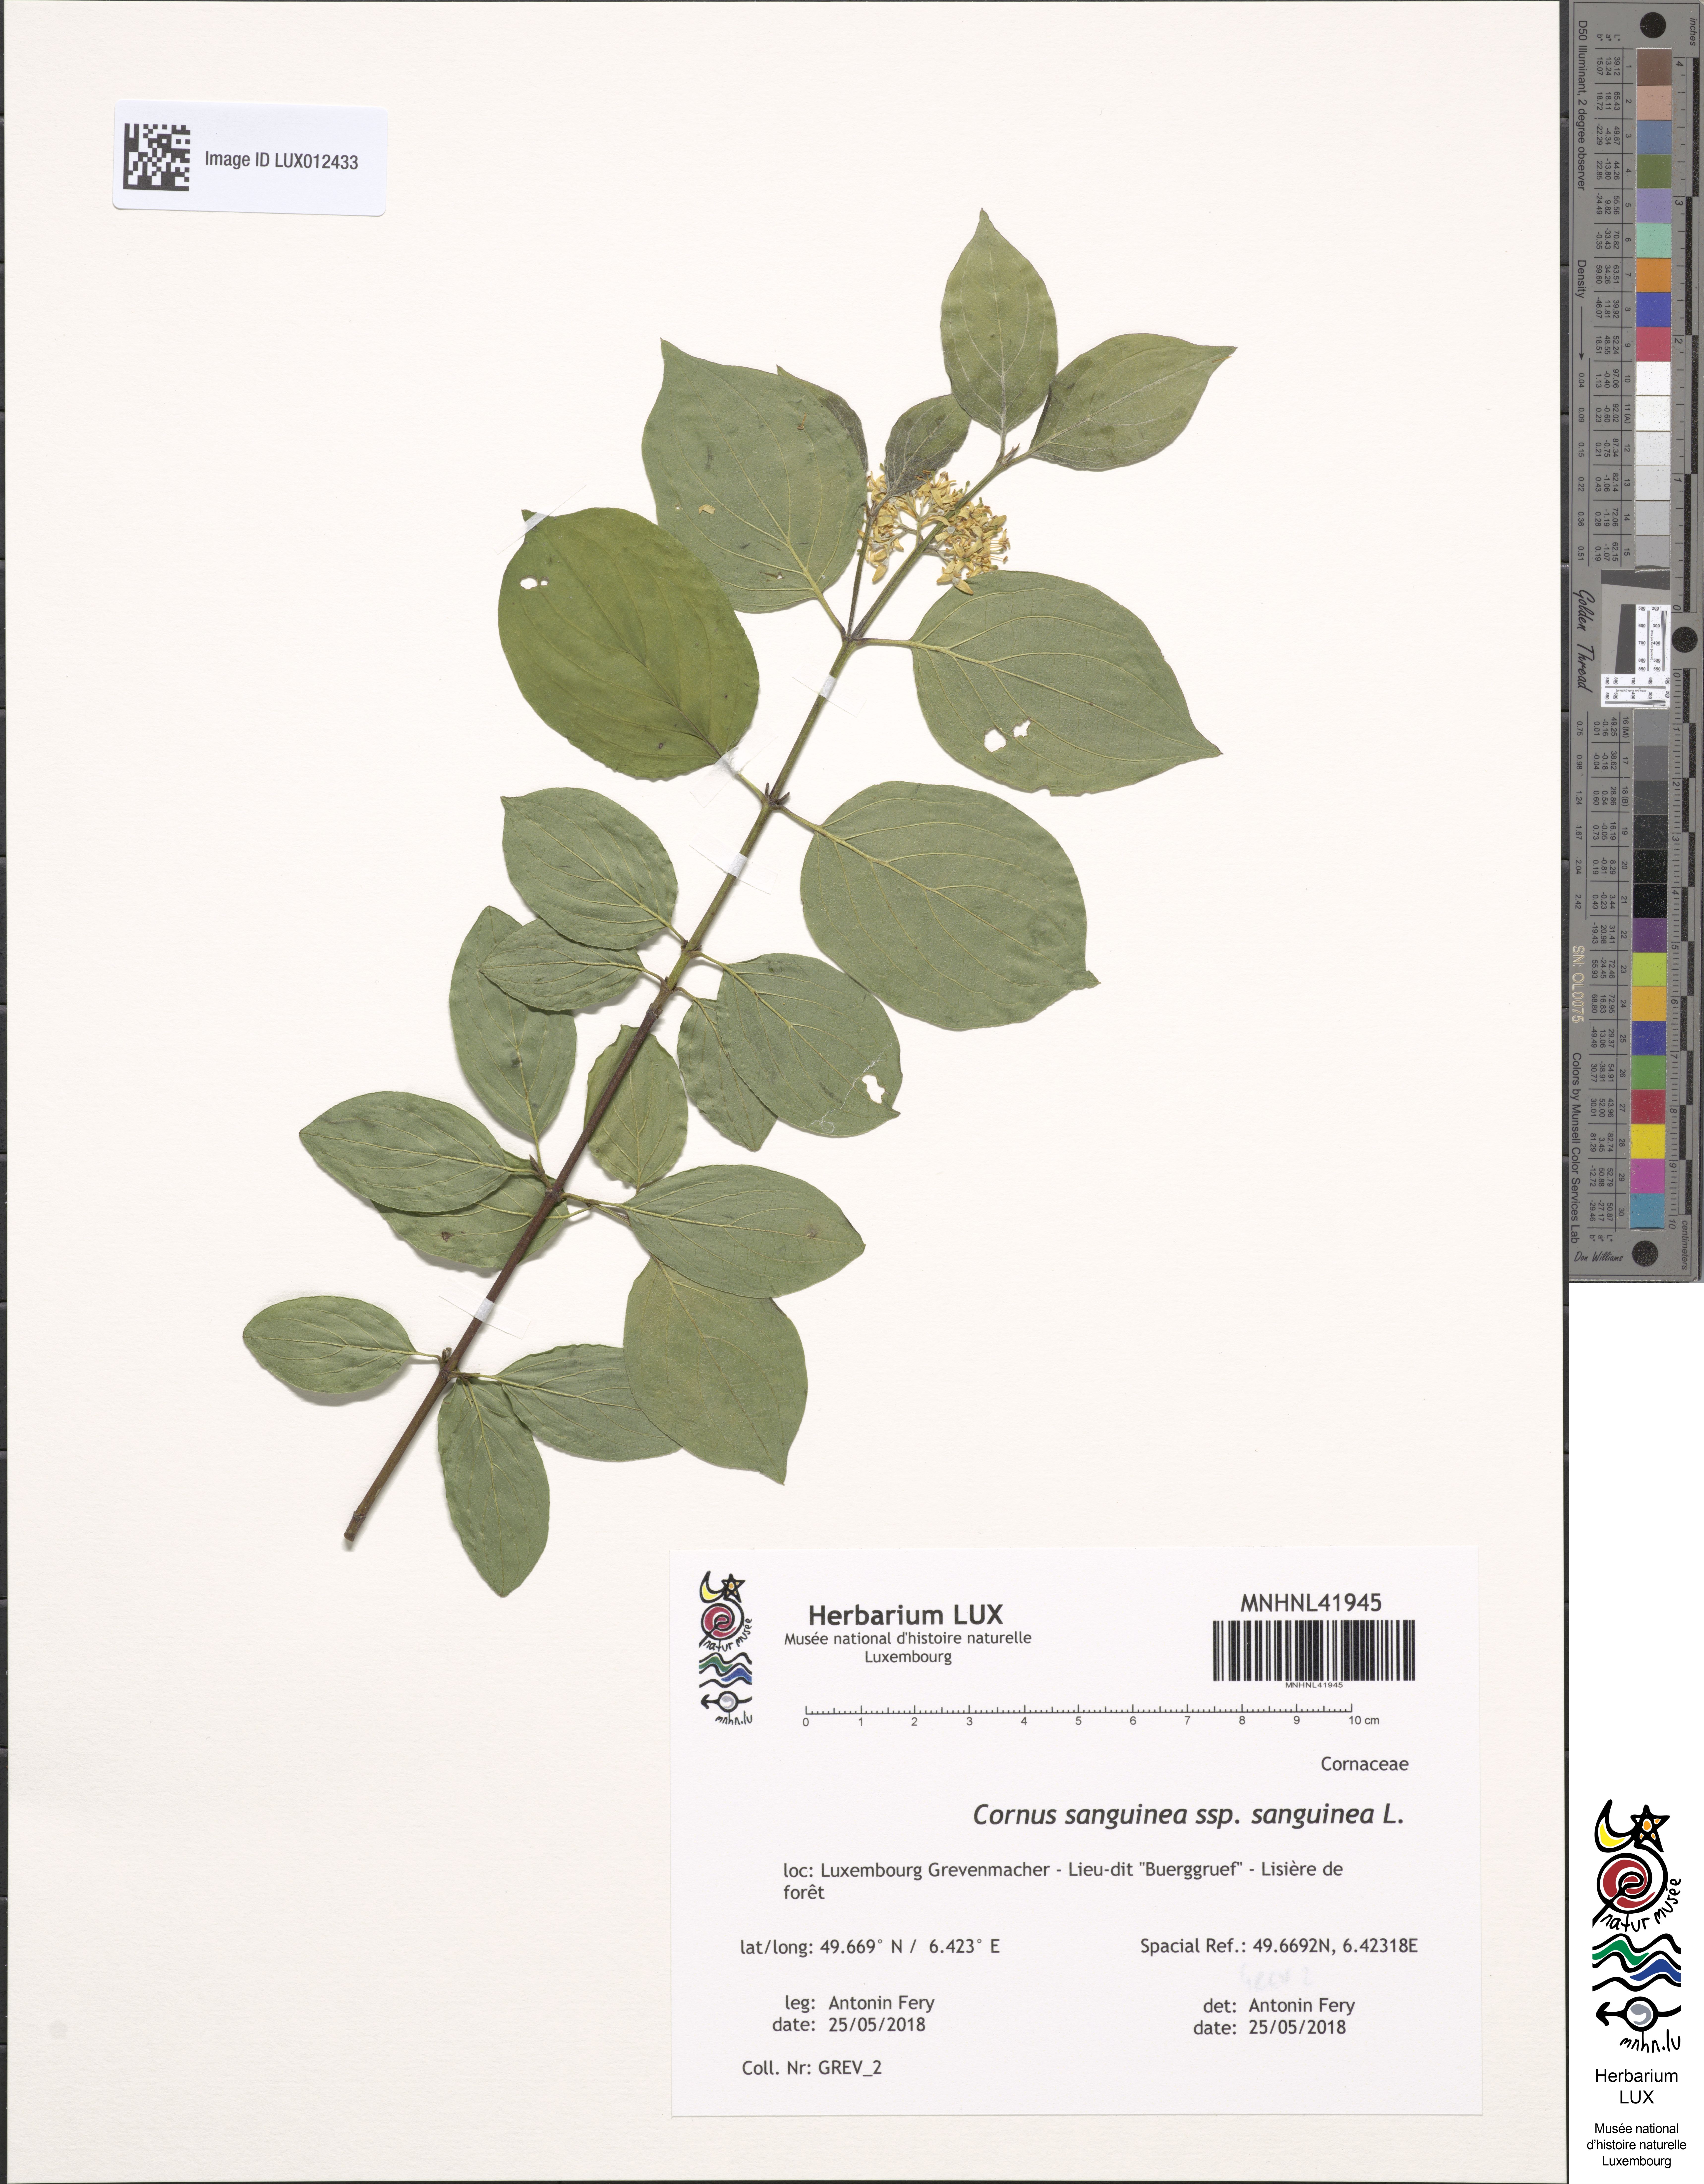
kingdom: Plantae
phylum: Tracheophyta
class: Magnoliopsida
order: Cornales
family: Cornaceae
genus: Cornus
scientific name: Cornus sanguinea
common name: Dogwood
